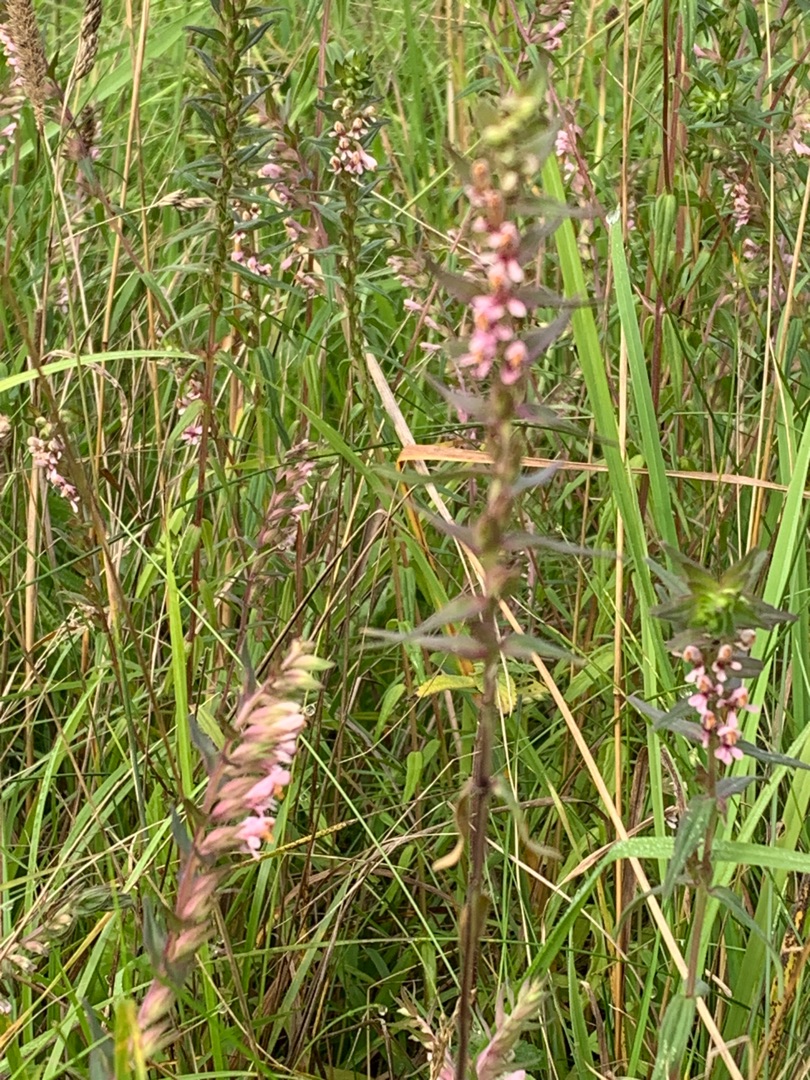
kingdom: Plantae
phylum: Tracheophyta
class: Magnoliopsida
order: Lamiales
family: Orobanchaceae
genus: Odontites
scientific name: Odontites vernus
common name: Mark-rødtop
